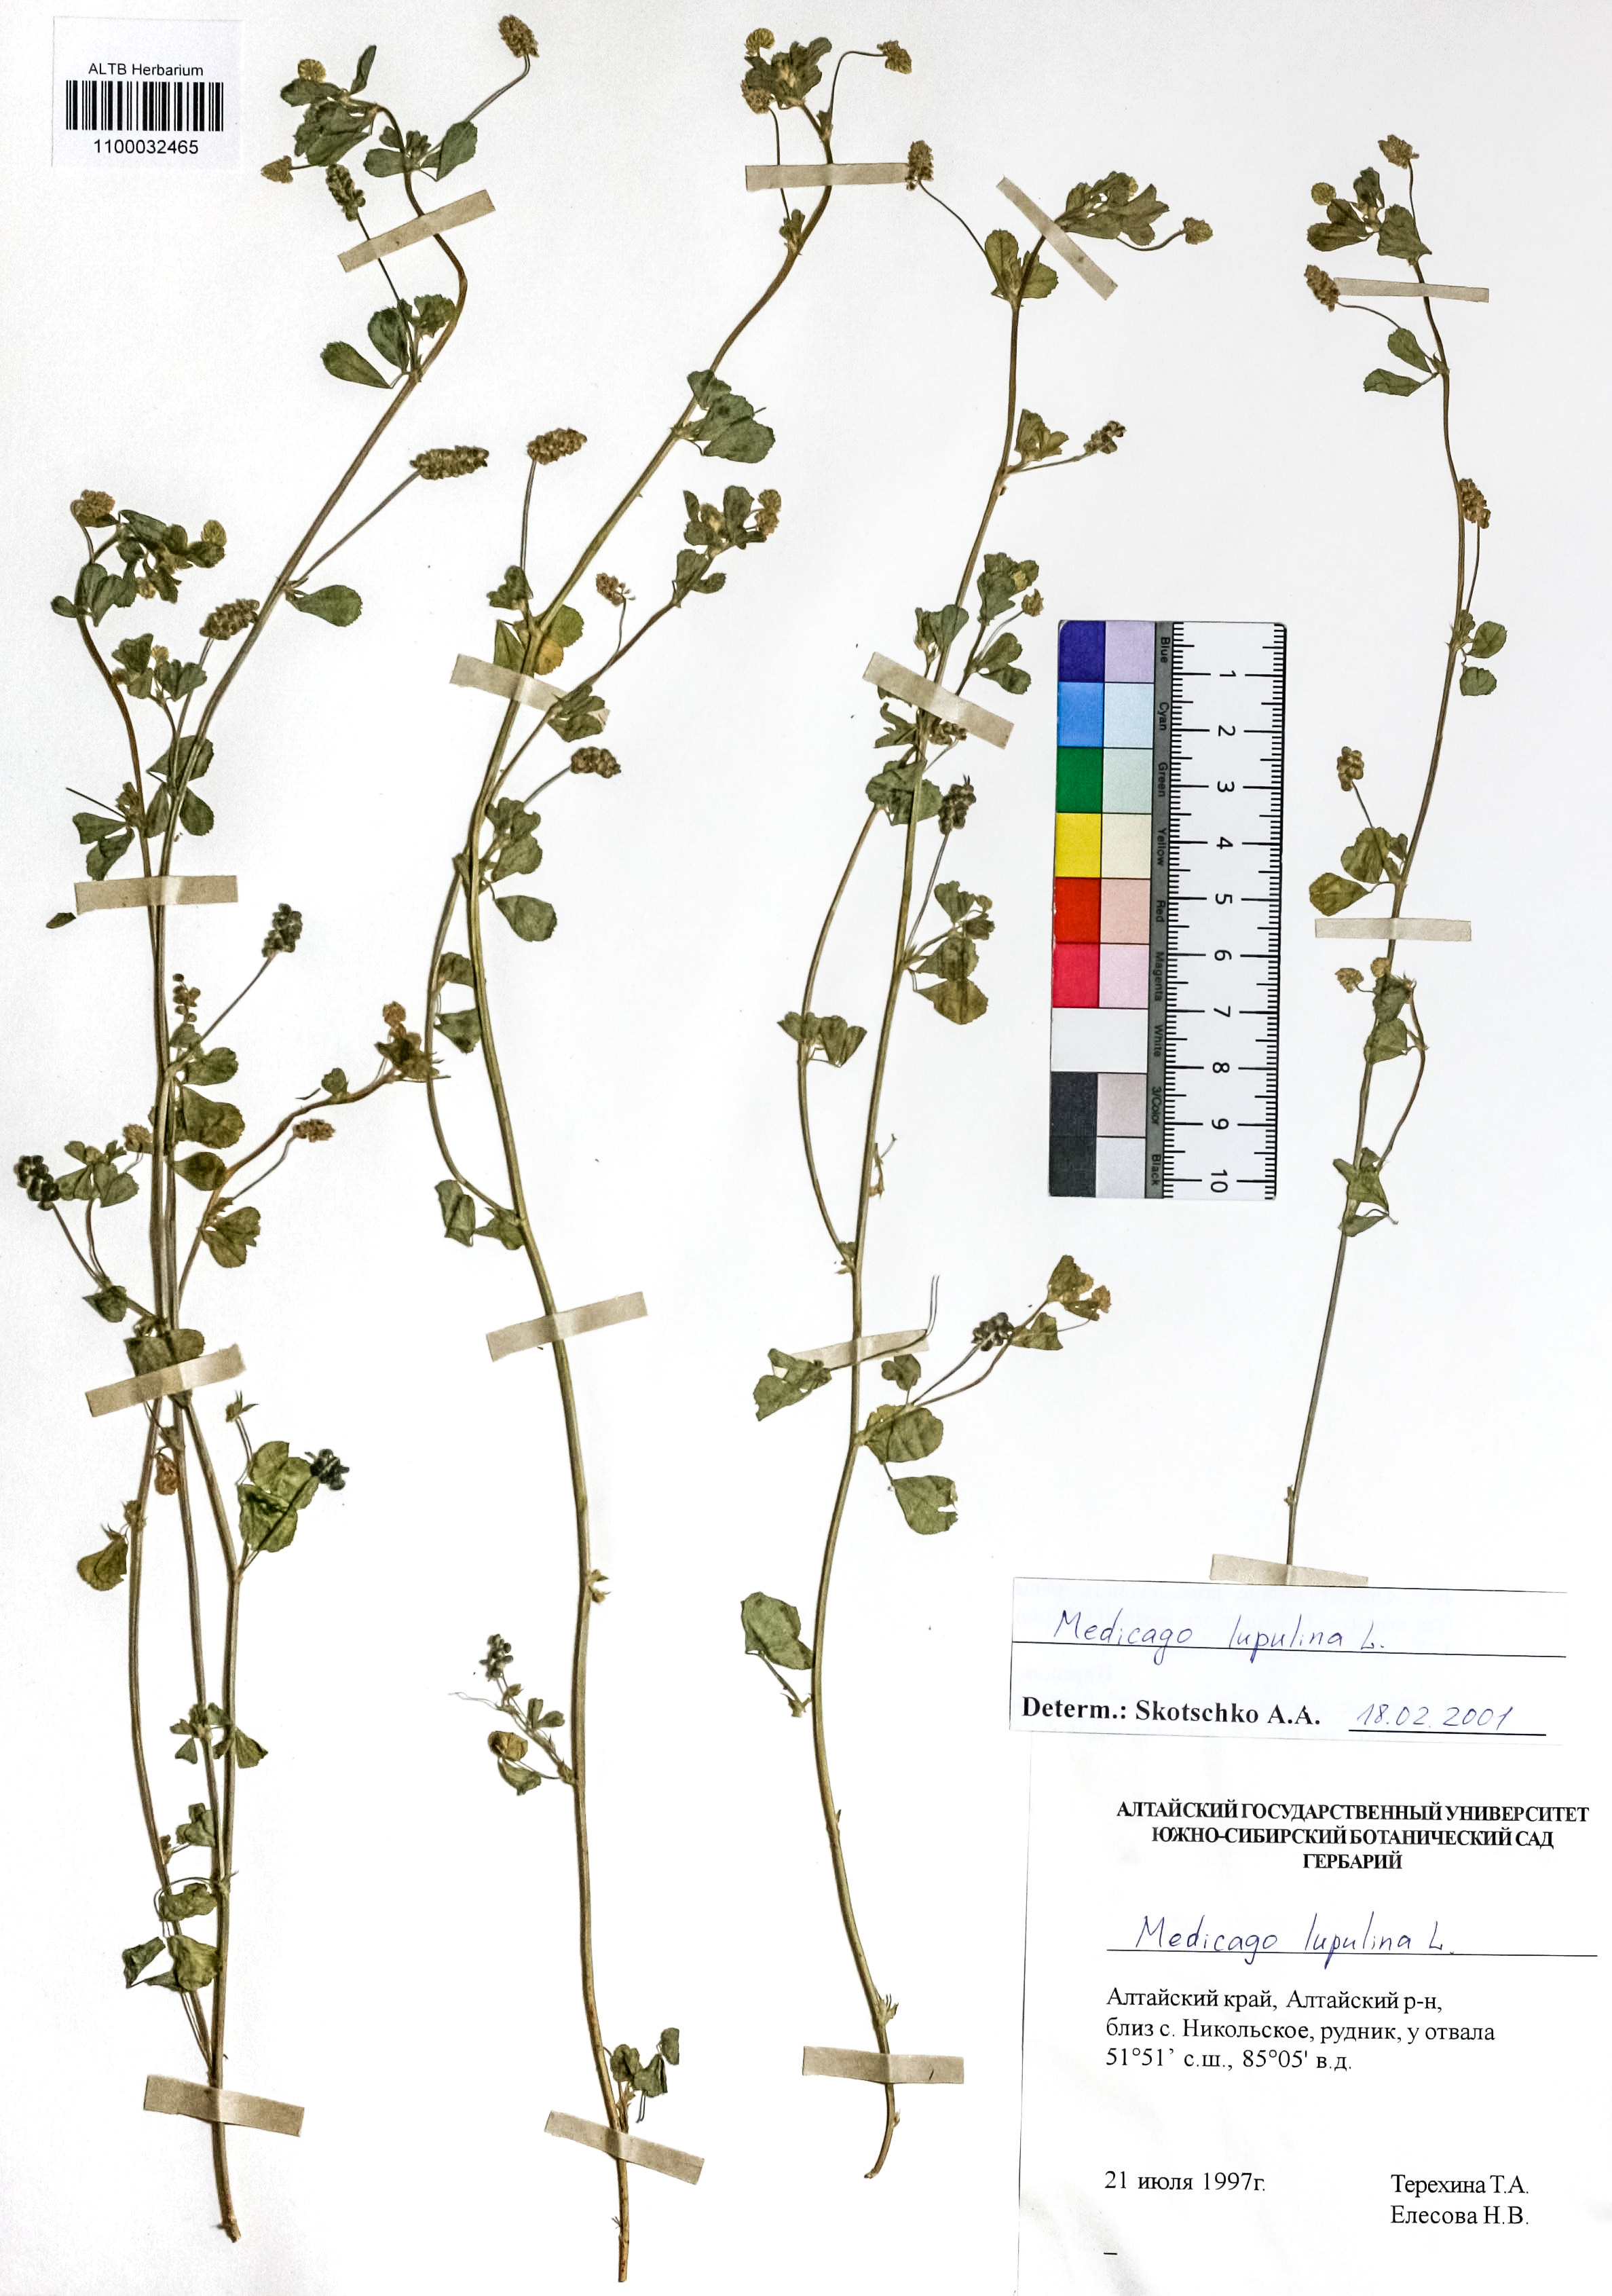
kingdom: Plantae
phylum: Tracheophyta
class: Magnoliopsida
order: Fabales
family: Fabaceae
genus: Medicago
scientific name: Medicago lupulina
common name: Black medick
